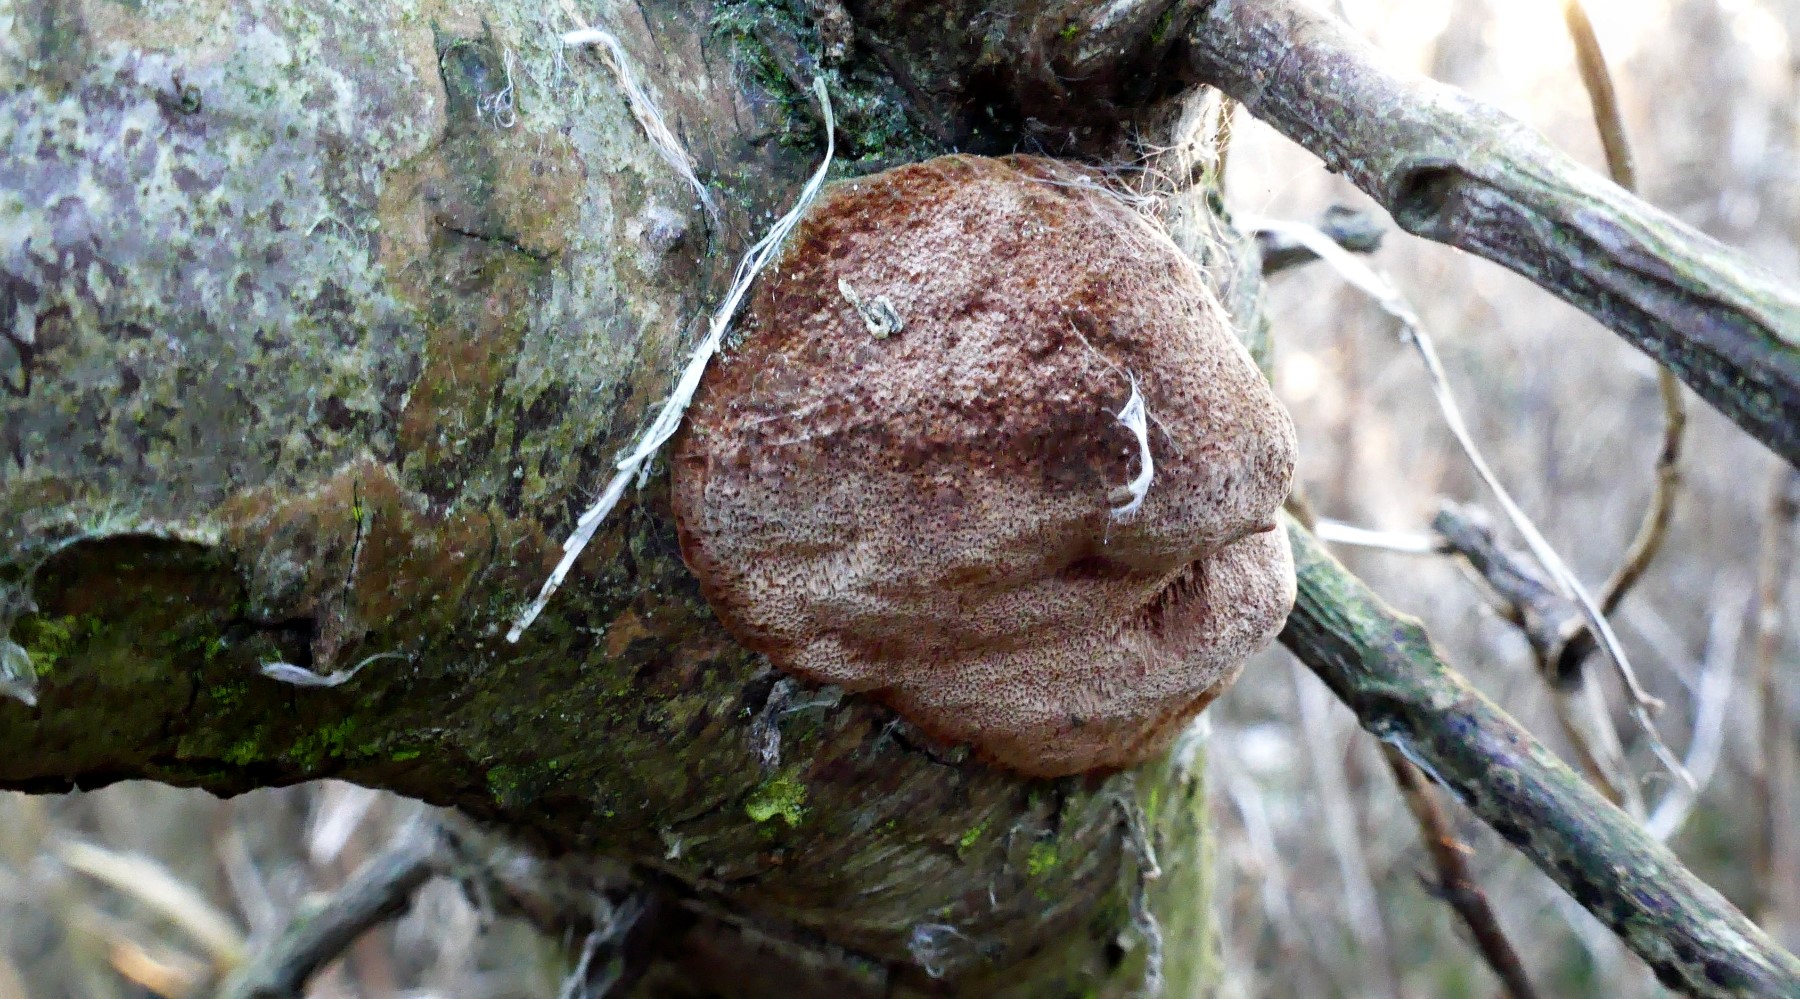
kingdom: Fungi
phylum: Basidiomycota
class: Agaricomycetes
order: Hymenochaetales
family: Hymenochaetaceae
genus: Fomitiporia
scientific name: Fomitiporia hippophaeicola
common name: havtorn-ildporesvamp
